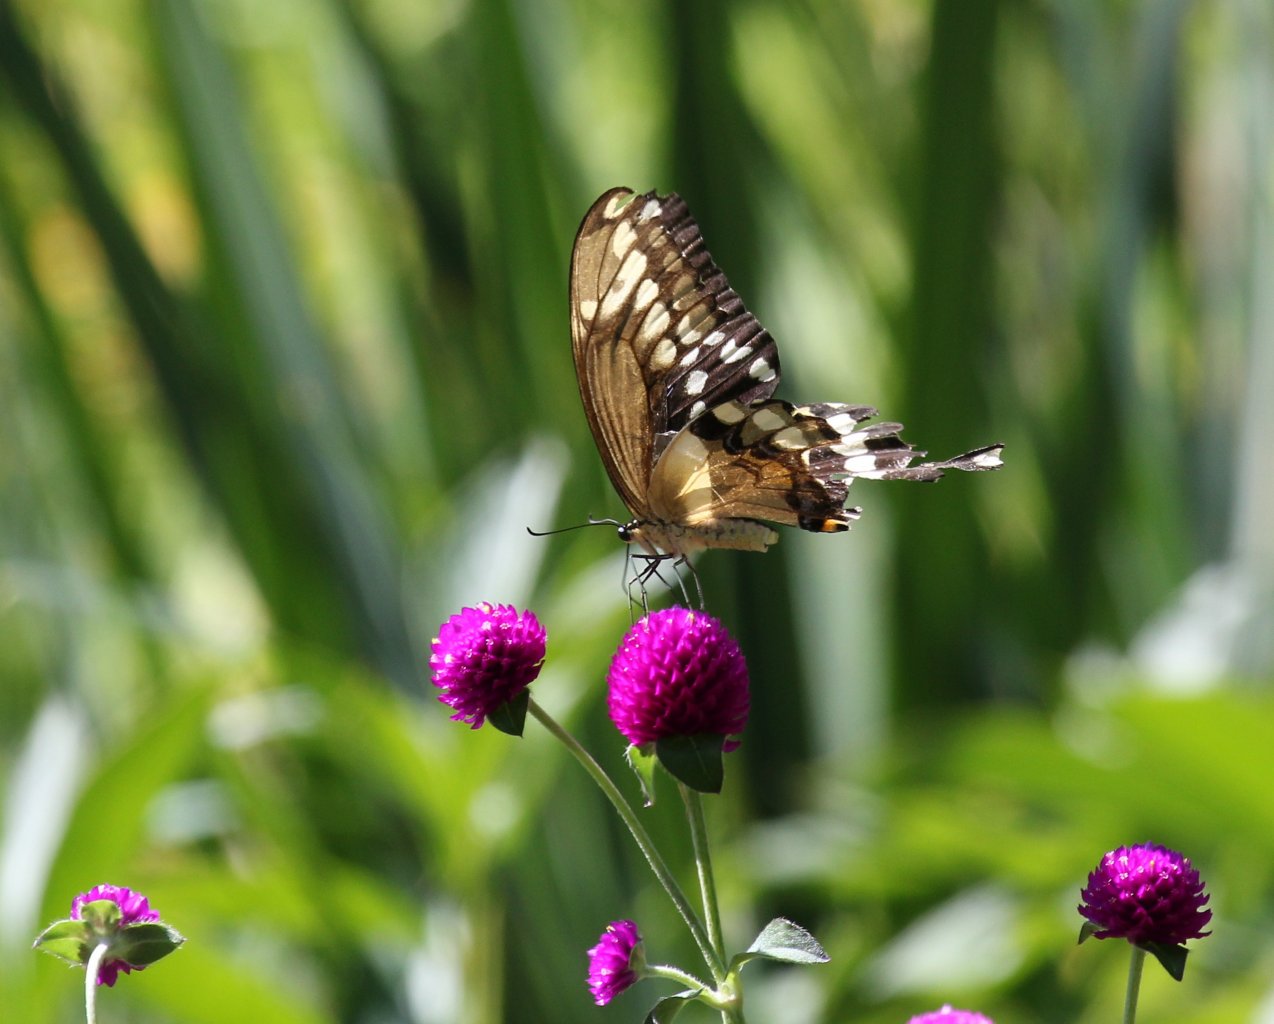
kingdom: Animalia
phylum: Arthropoda
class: Insecta
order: Lepidoptera
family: Papilionidae
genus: Papilio
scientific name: Papilio cresphontes
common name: Eastern Giant Swallowtail
